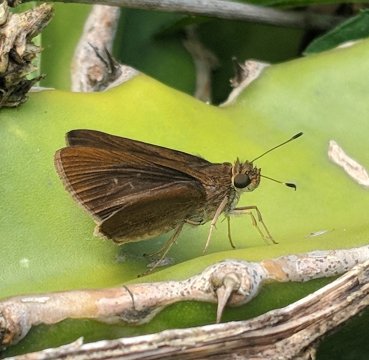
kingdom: Animalia
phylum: Arthropoda
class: Insecta
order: Lepidoptera
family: Hesperiidae
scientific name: Hesperiidae
